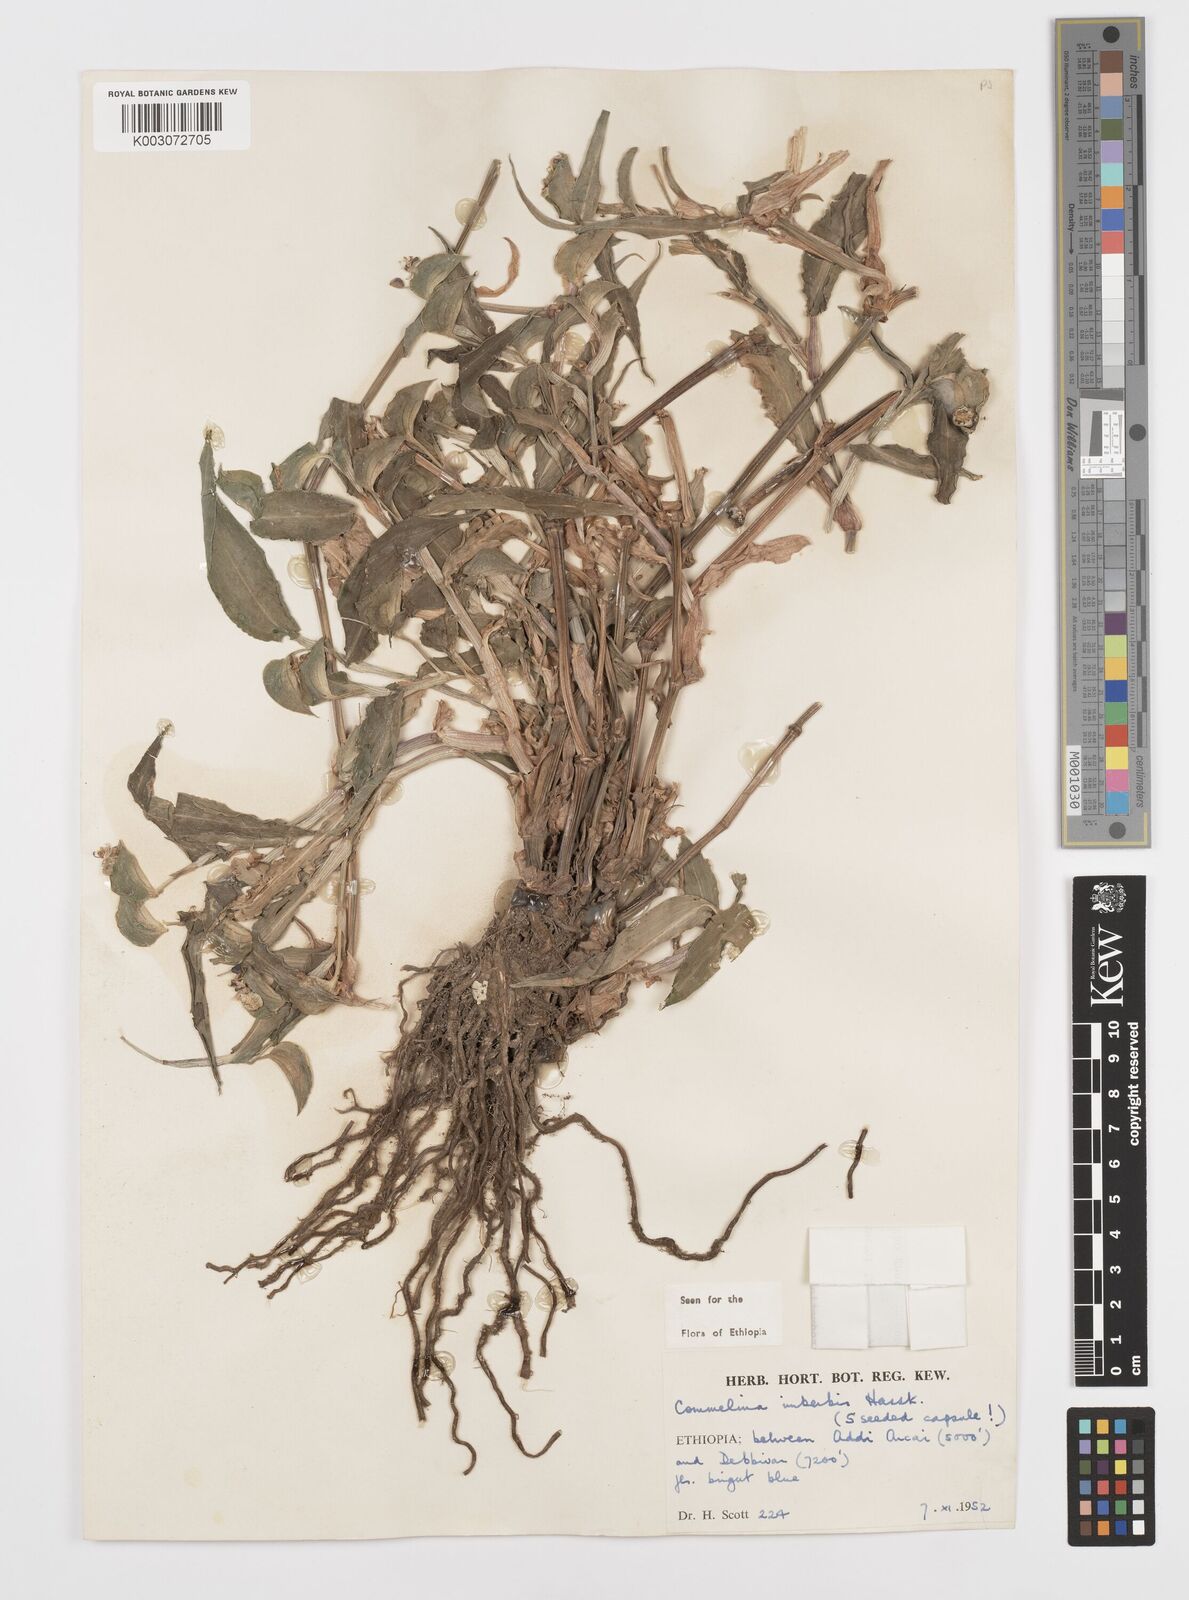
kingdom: Plantae
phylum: Tracheophyta
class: Liliopsida
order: Commelinales
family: Commelinaceae
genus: Commelina
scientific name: Commelina imberbis
